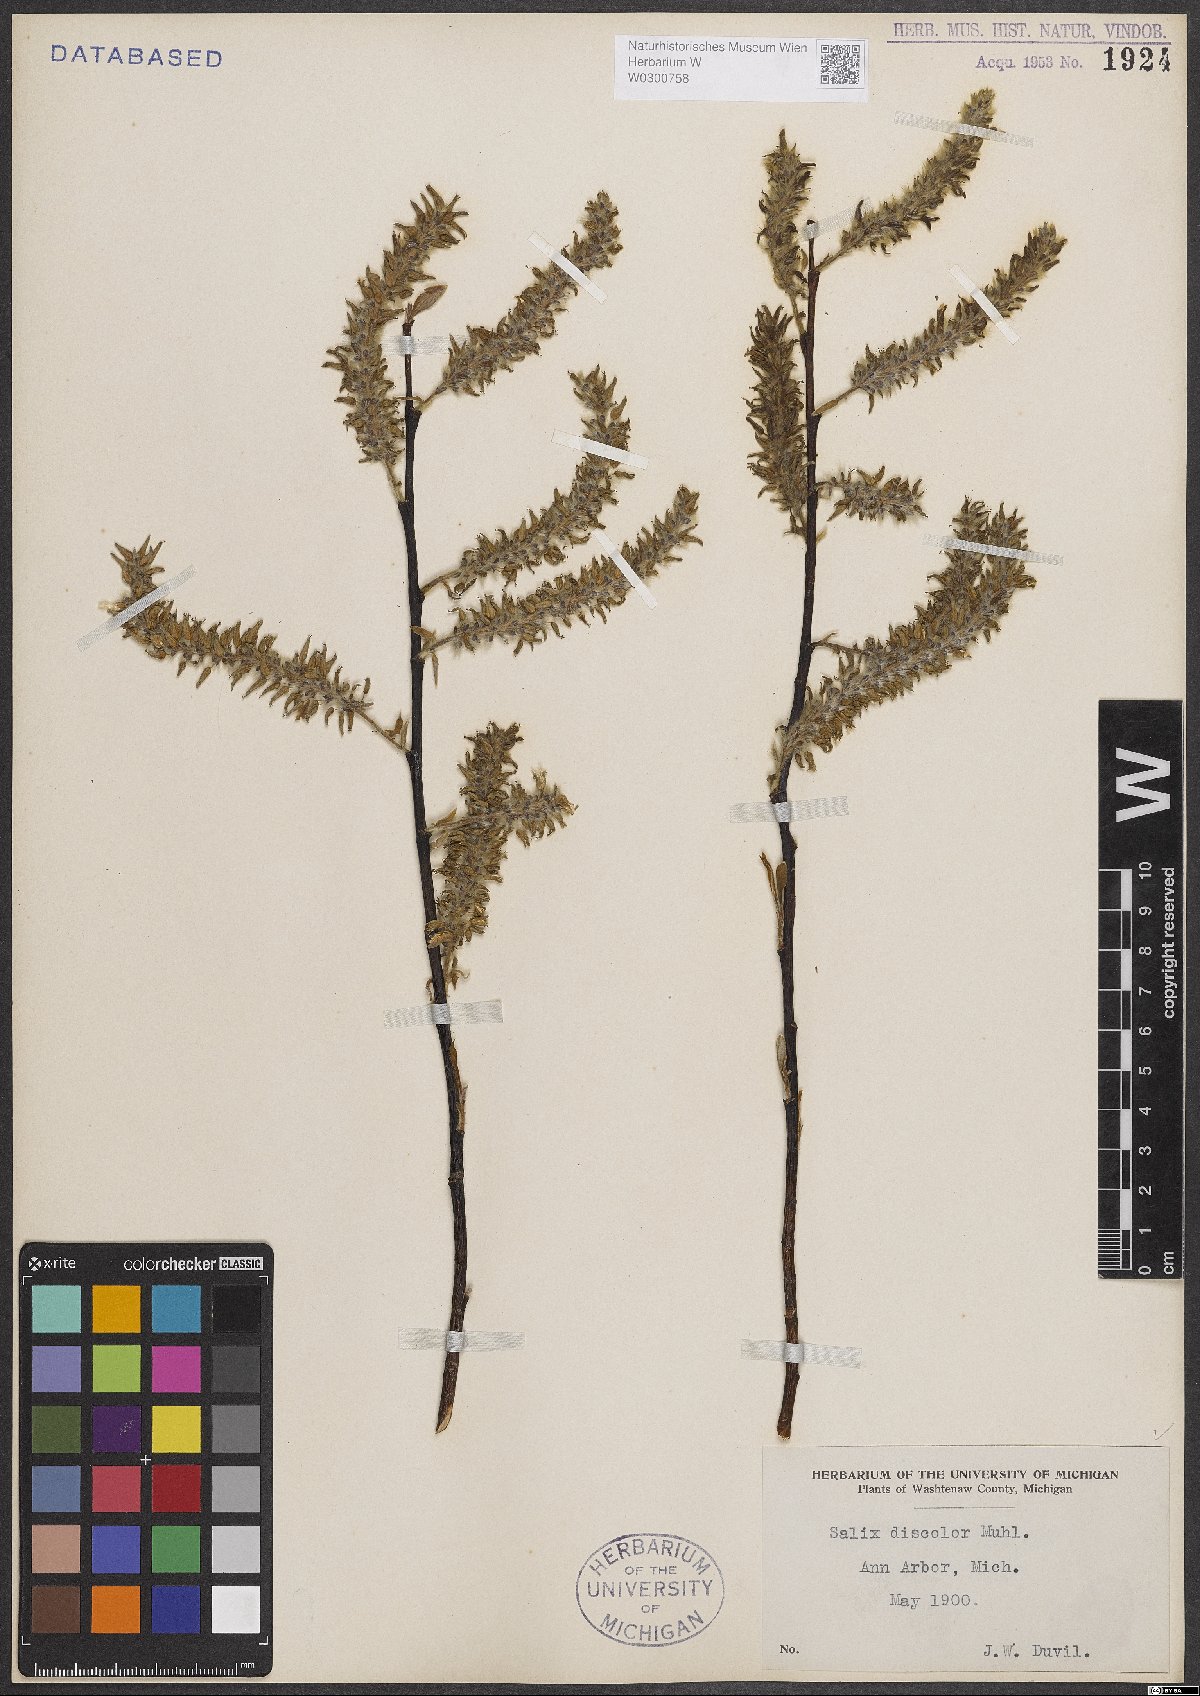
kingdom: Plantae
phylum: Tracheophyta
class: Magnoliopsida
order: Malpighiales
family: Salicaceae
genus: Salix
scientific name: Salix discolor
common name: Glaucous willow
